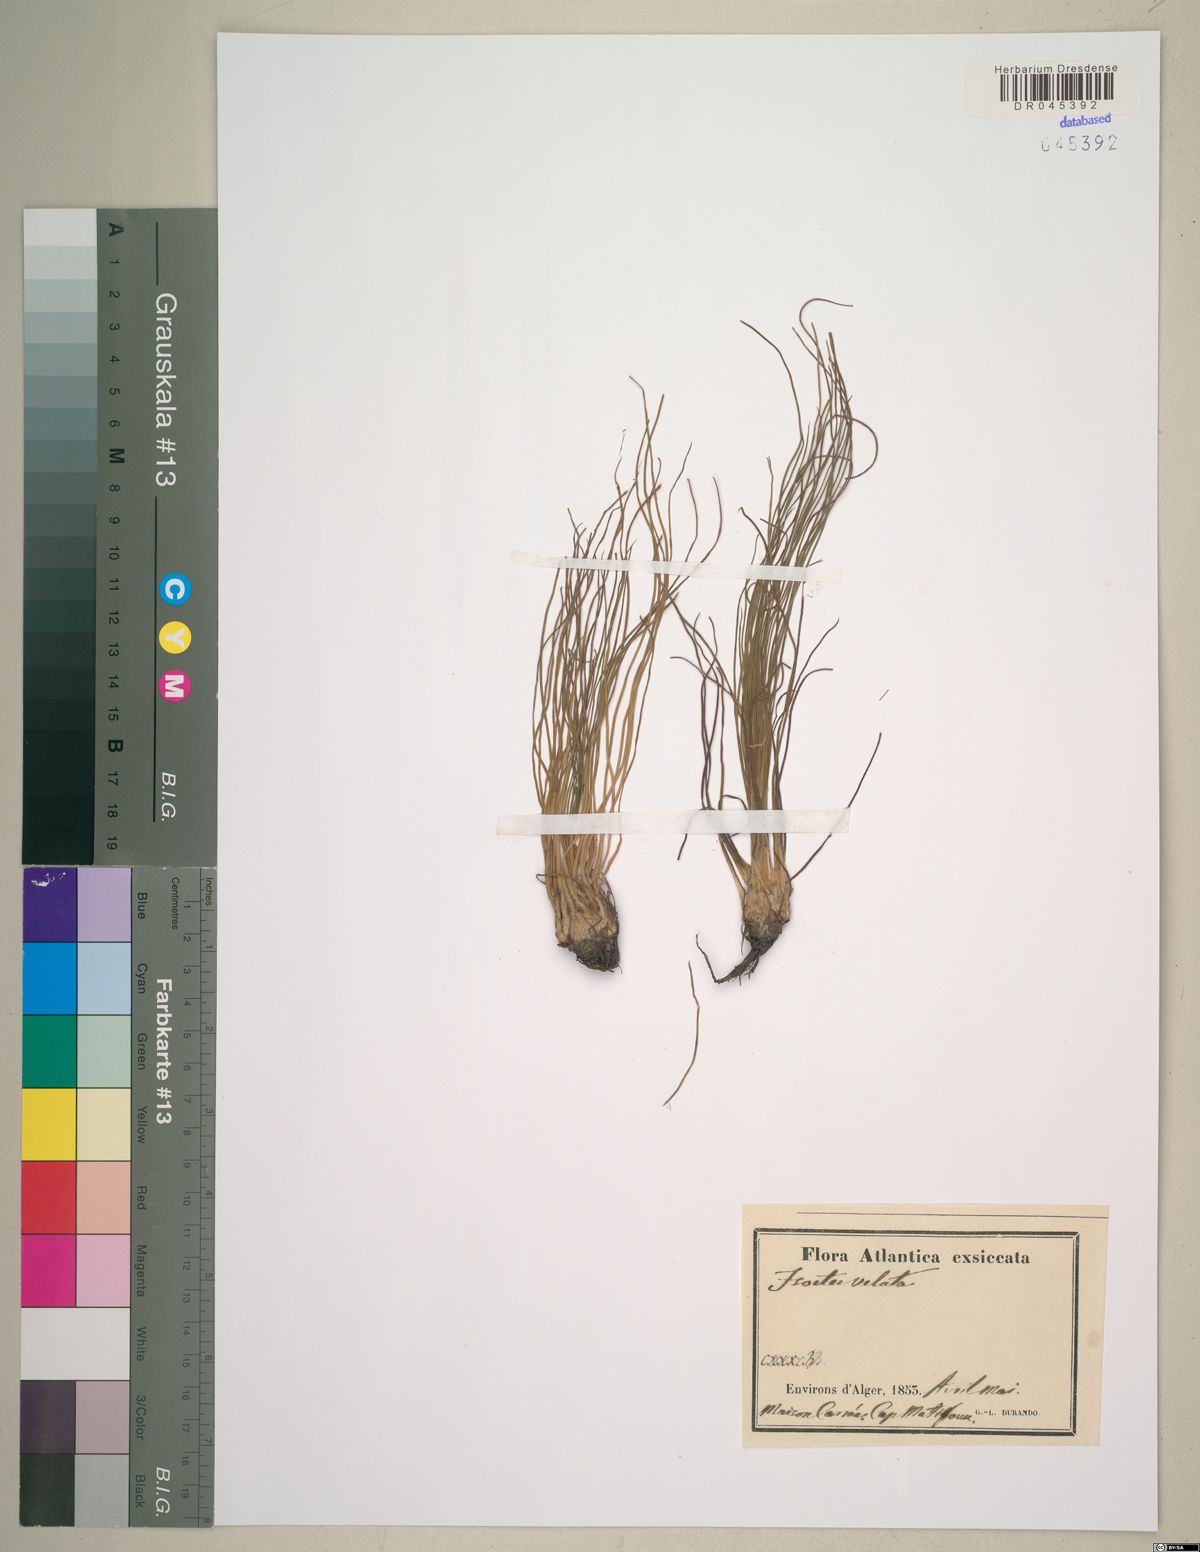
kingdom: Plantae
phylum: Tracheophyta
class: Lycopodiopsida
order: Isoetales
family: Isoetaceae
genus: Isoetes
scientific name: Isoetes longissima
